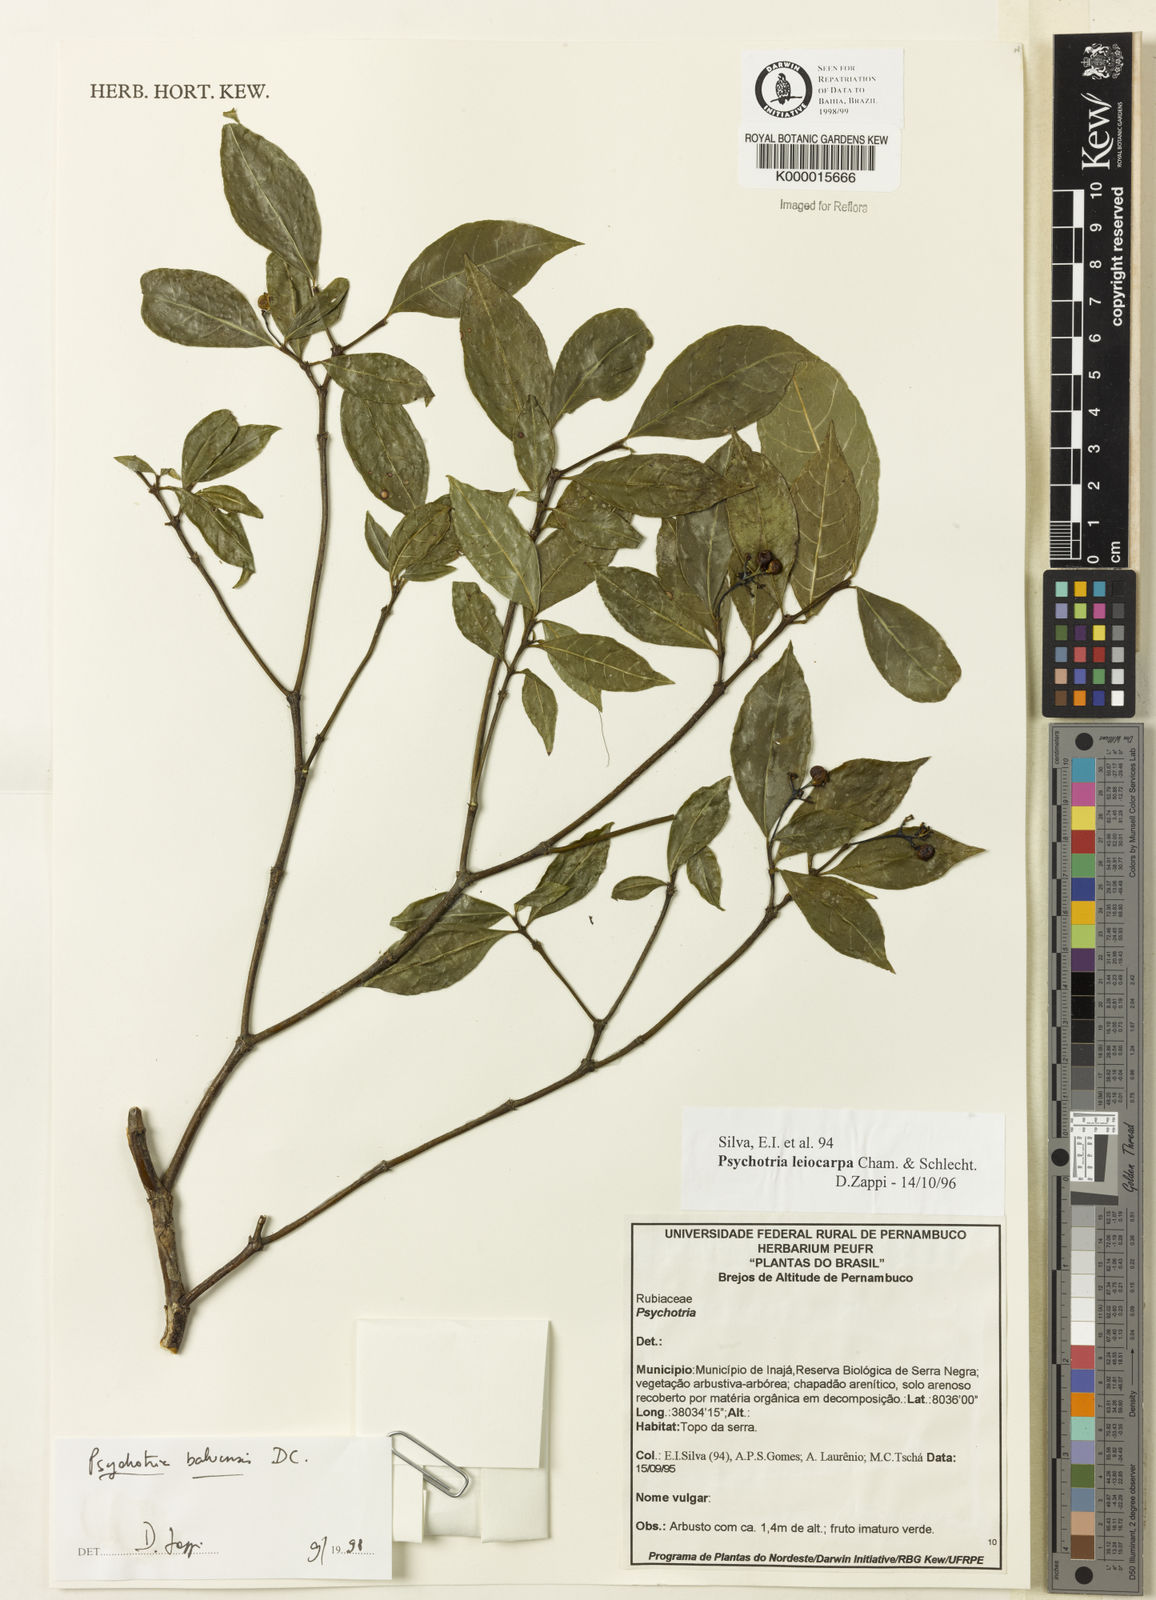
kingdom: Plantae
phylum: Tracheophyta
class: Magnoliopsida
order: Gentianales
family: Rubiaceae
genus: Psychotria
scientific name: Psychotria bahiensis
